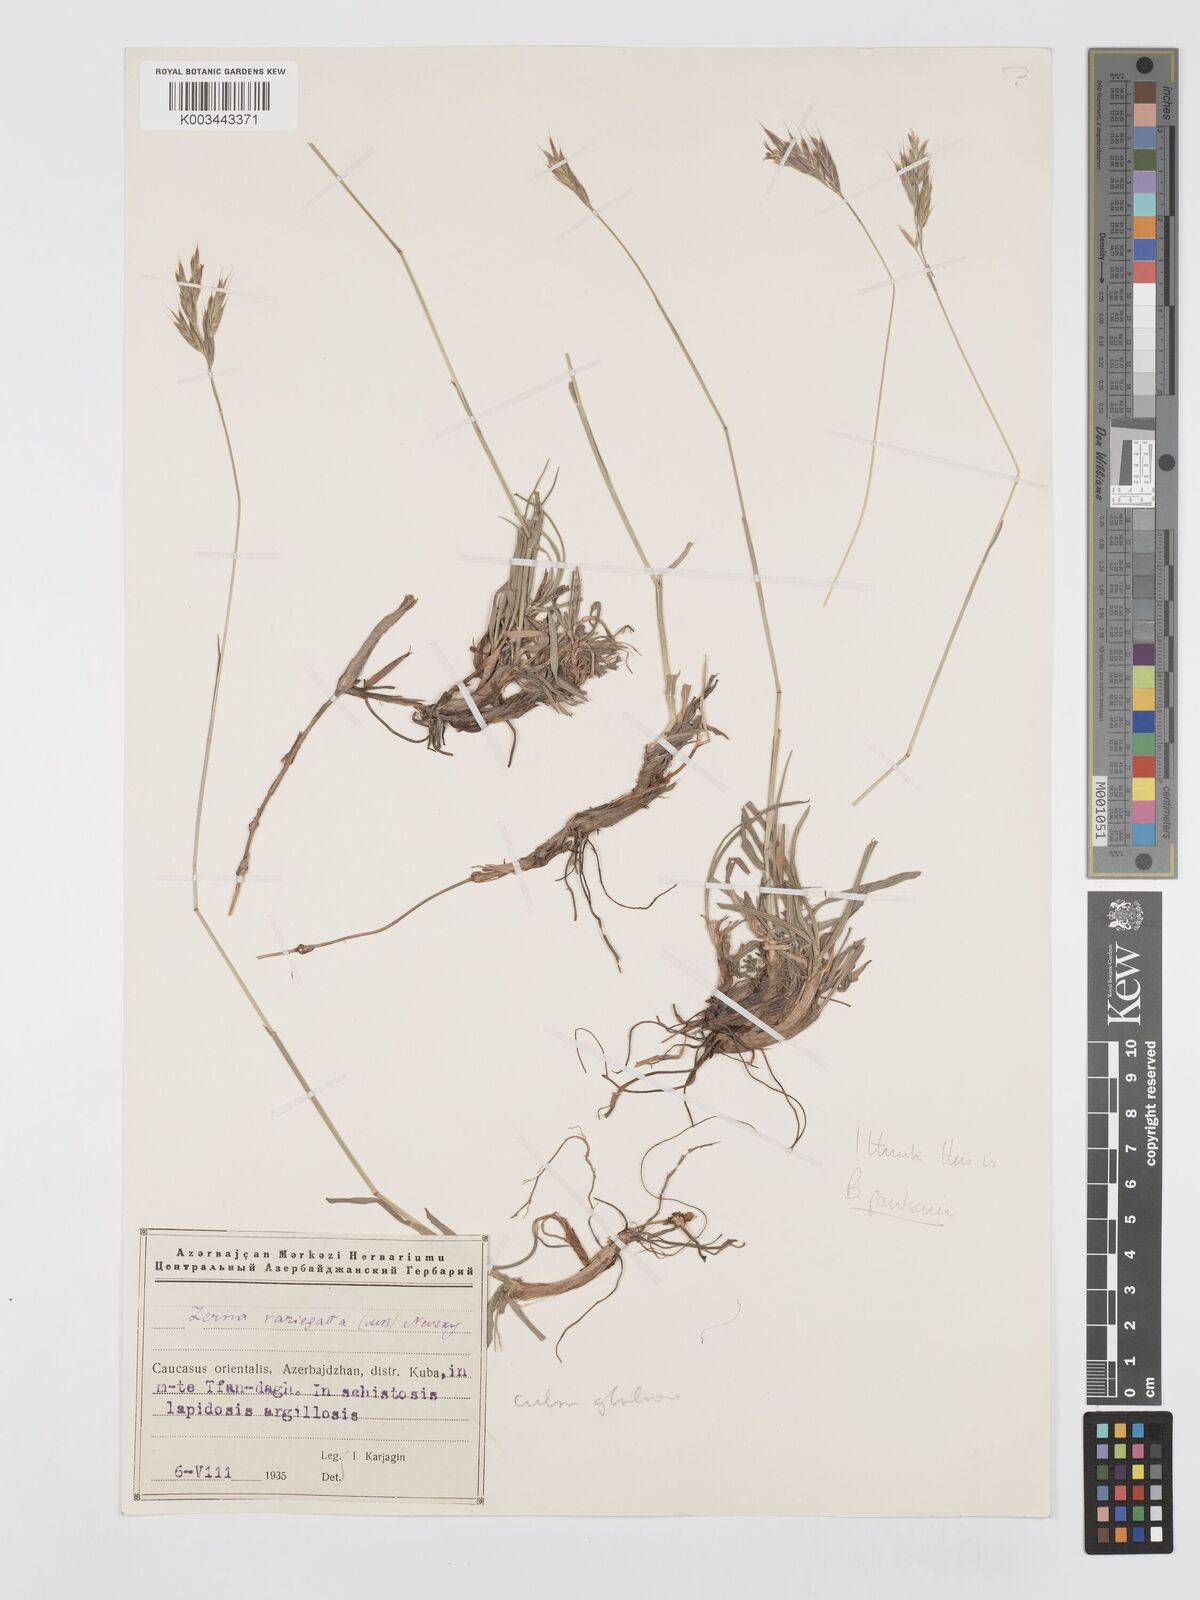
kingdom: Plantae
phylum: Tracheophyta
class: Liliopsida
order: Poales
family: Poaceae
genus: Bromus
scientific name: Bromus variegatus
